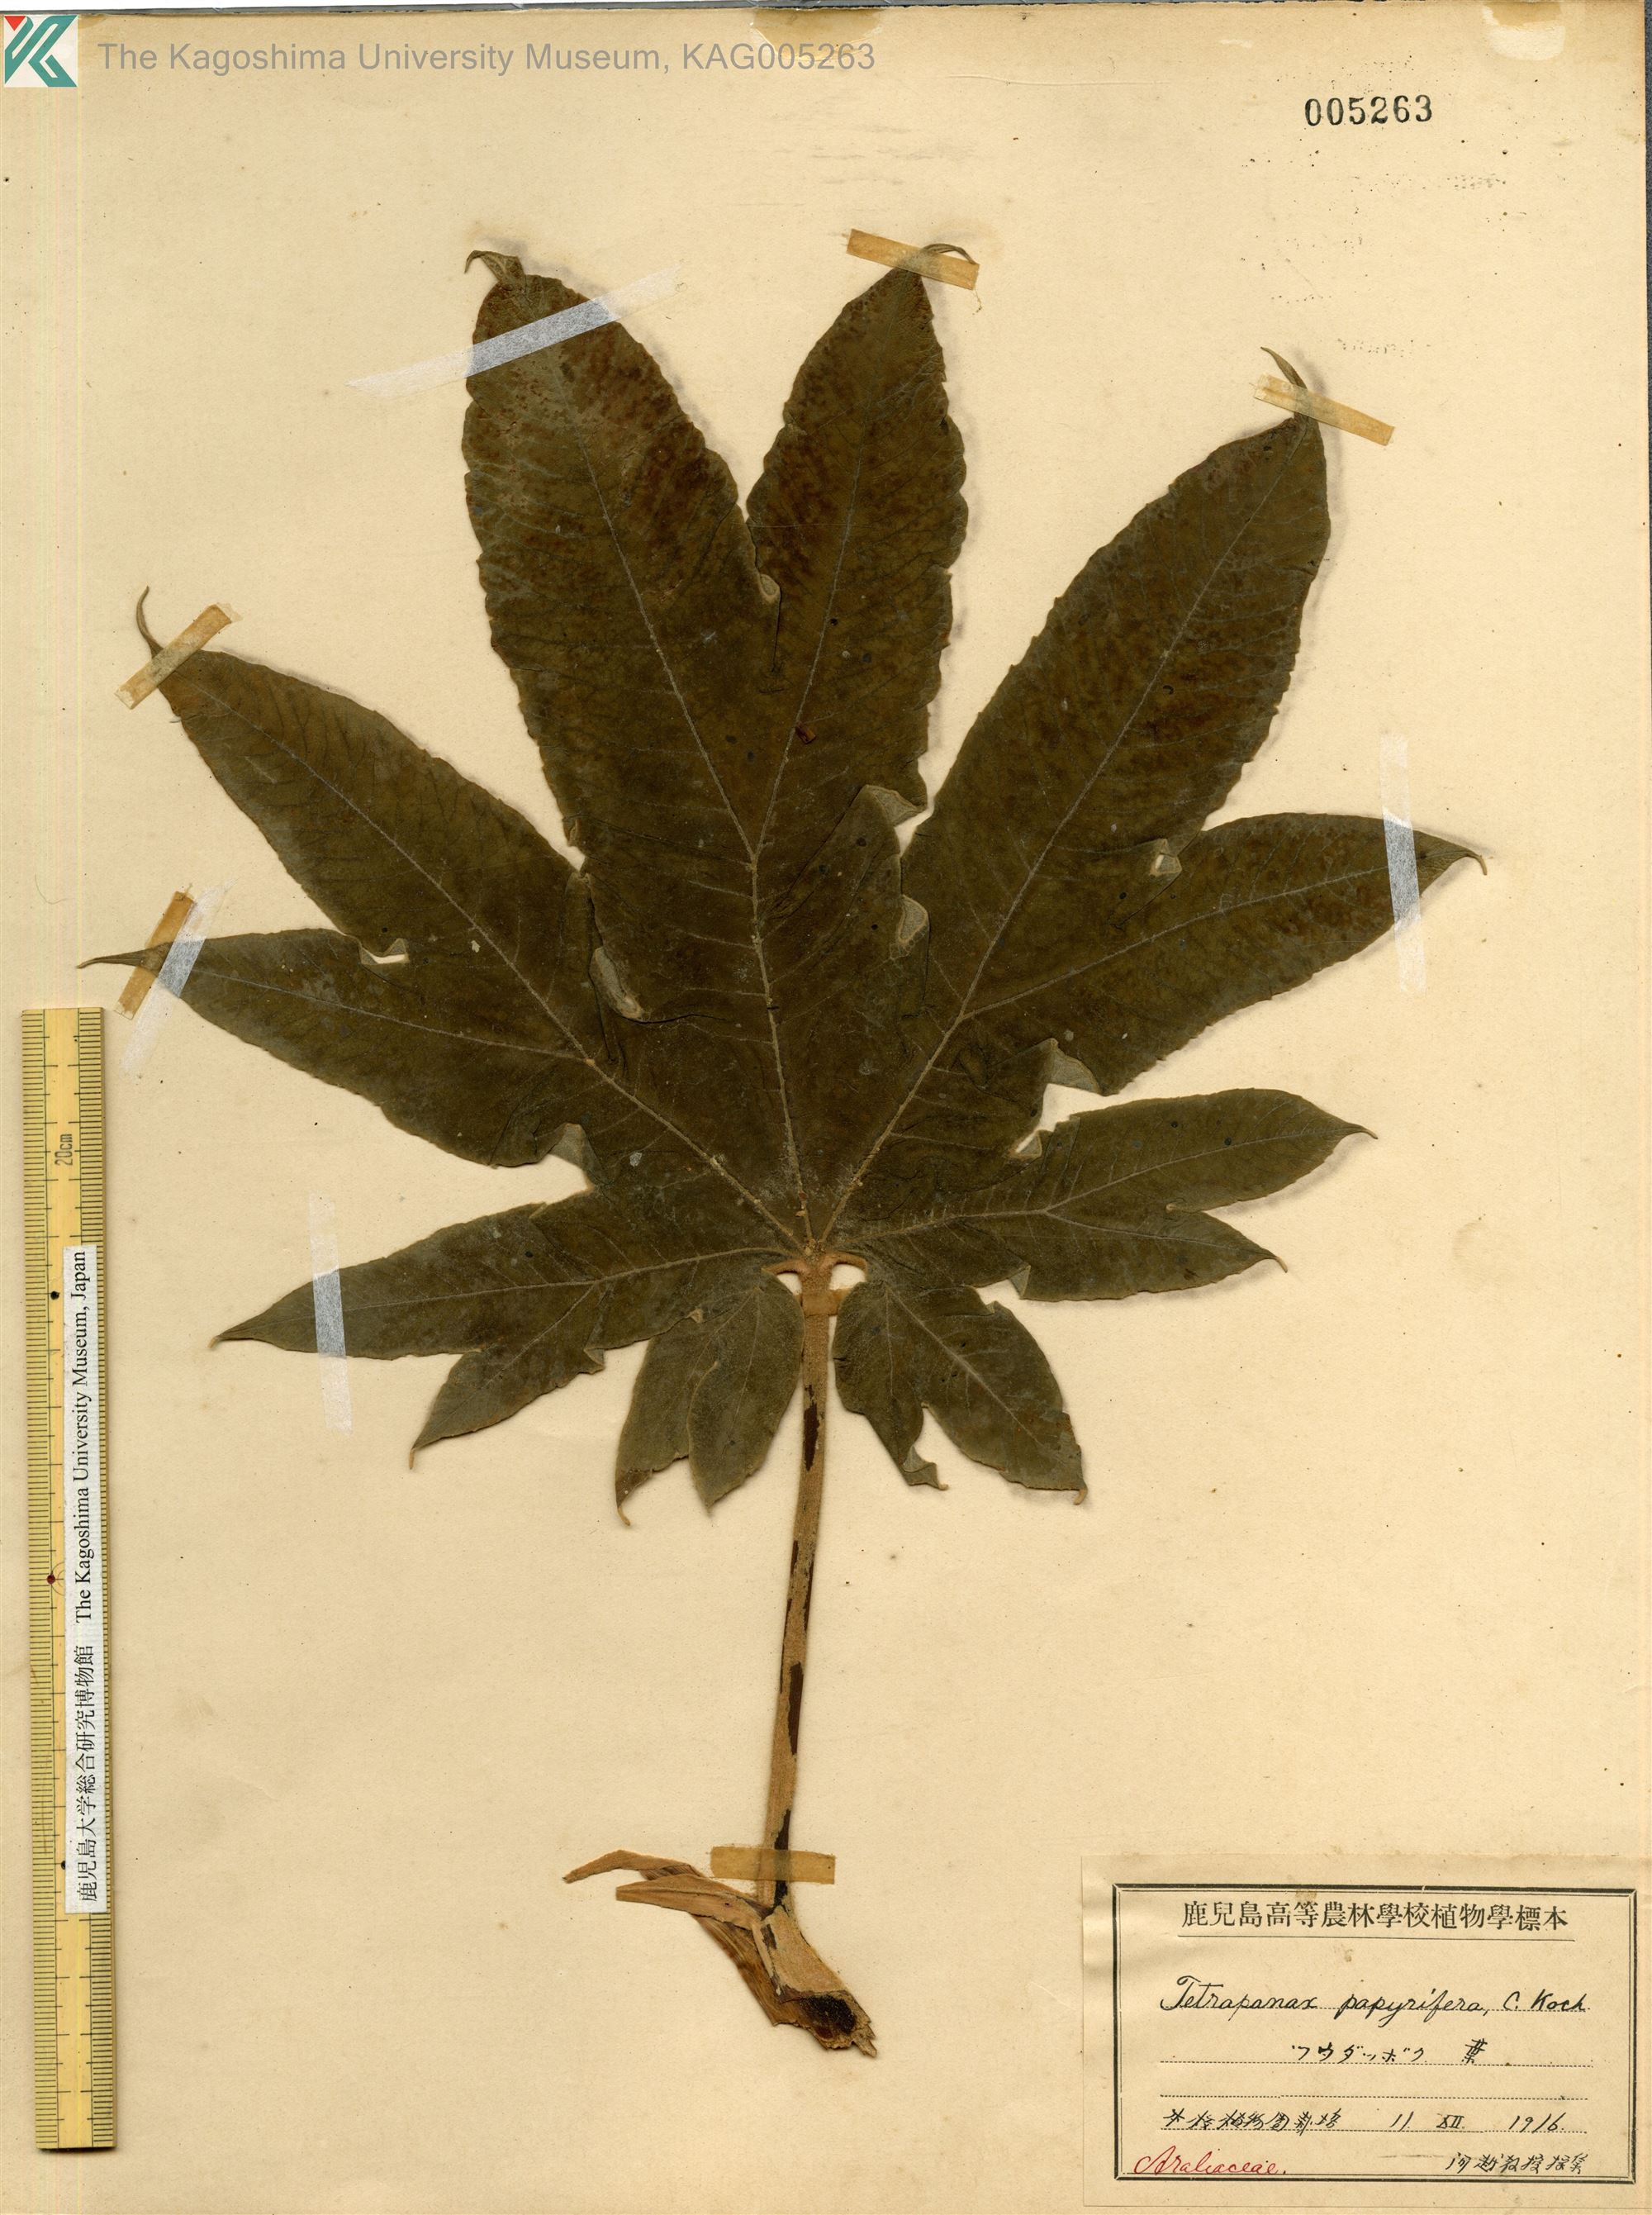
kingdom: Plantae
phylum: Tracheophyta
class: Magnoliopsida
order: Apiales
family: Araliaceae
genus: Tetrapanax
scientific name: Tetrapanax papyrifer
